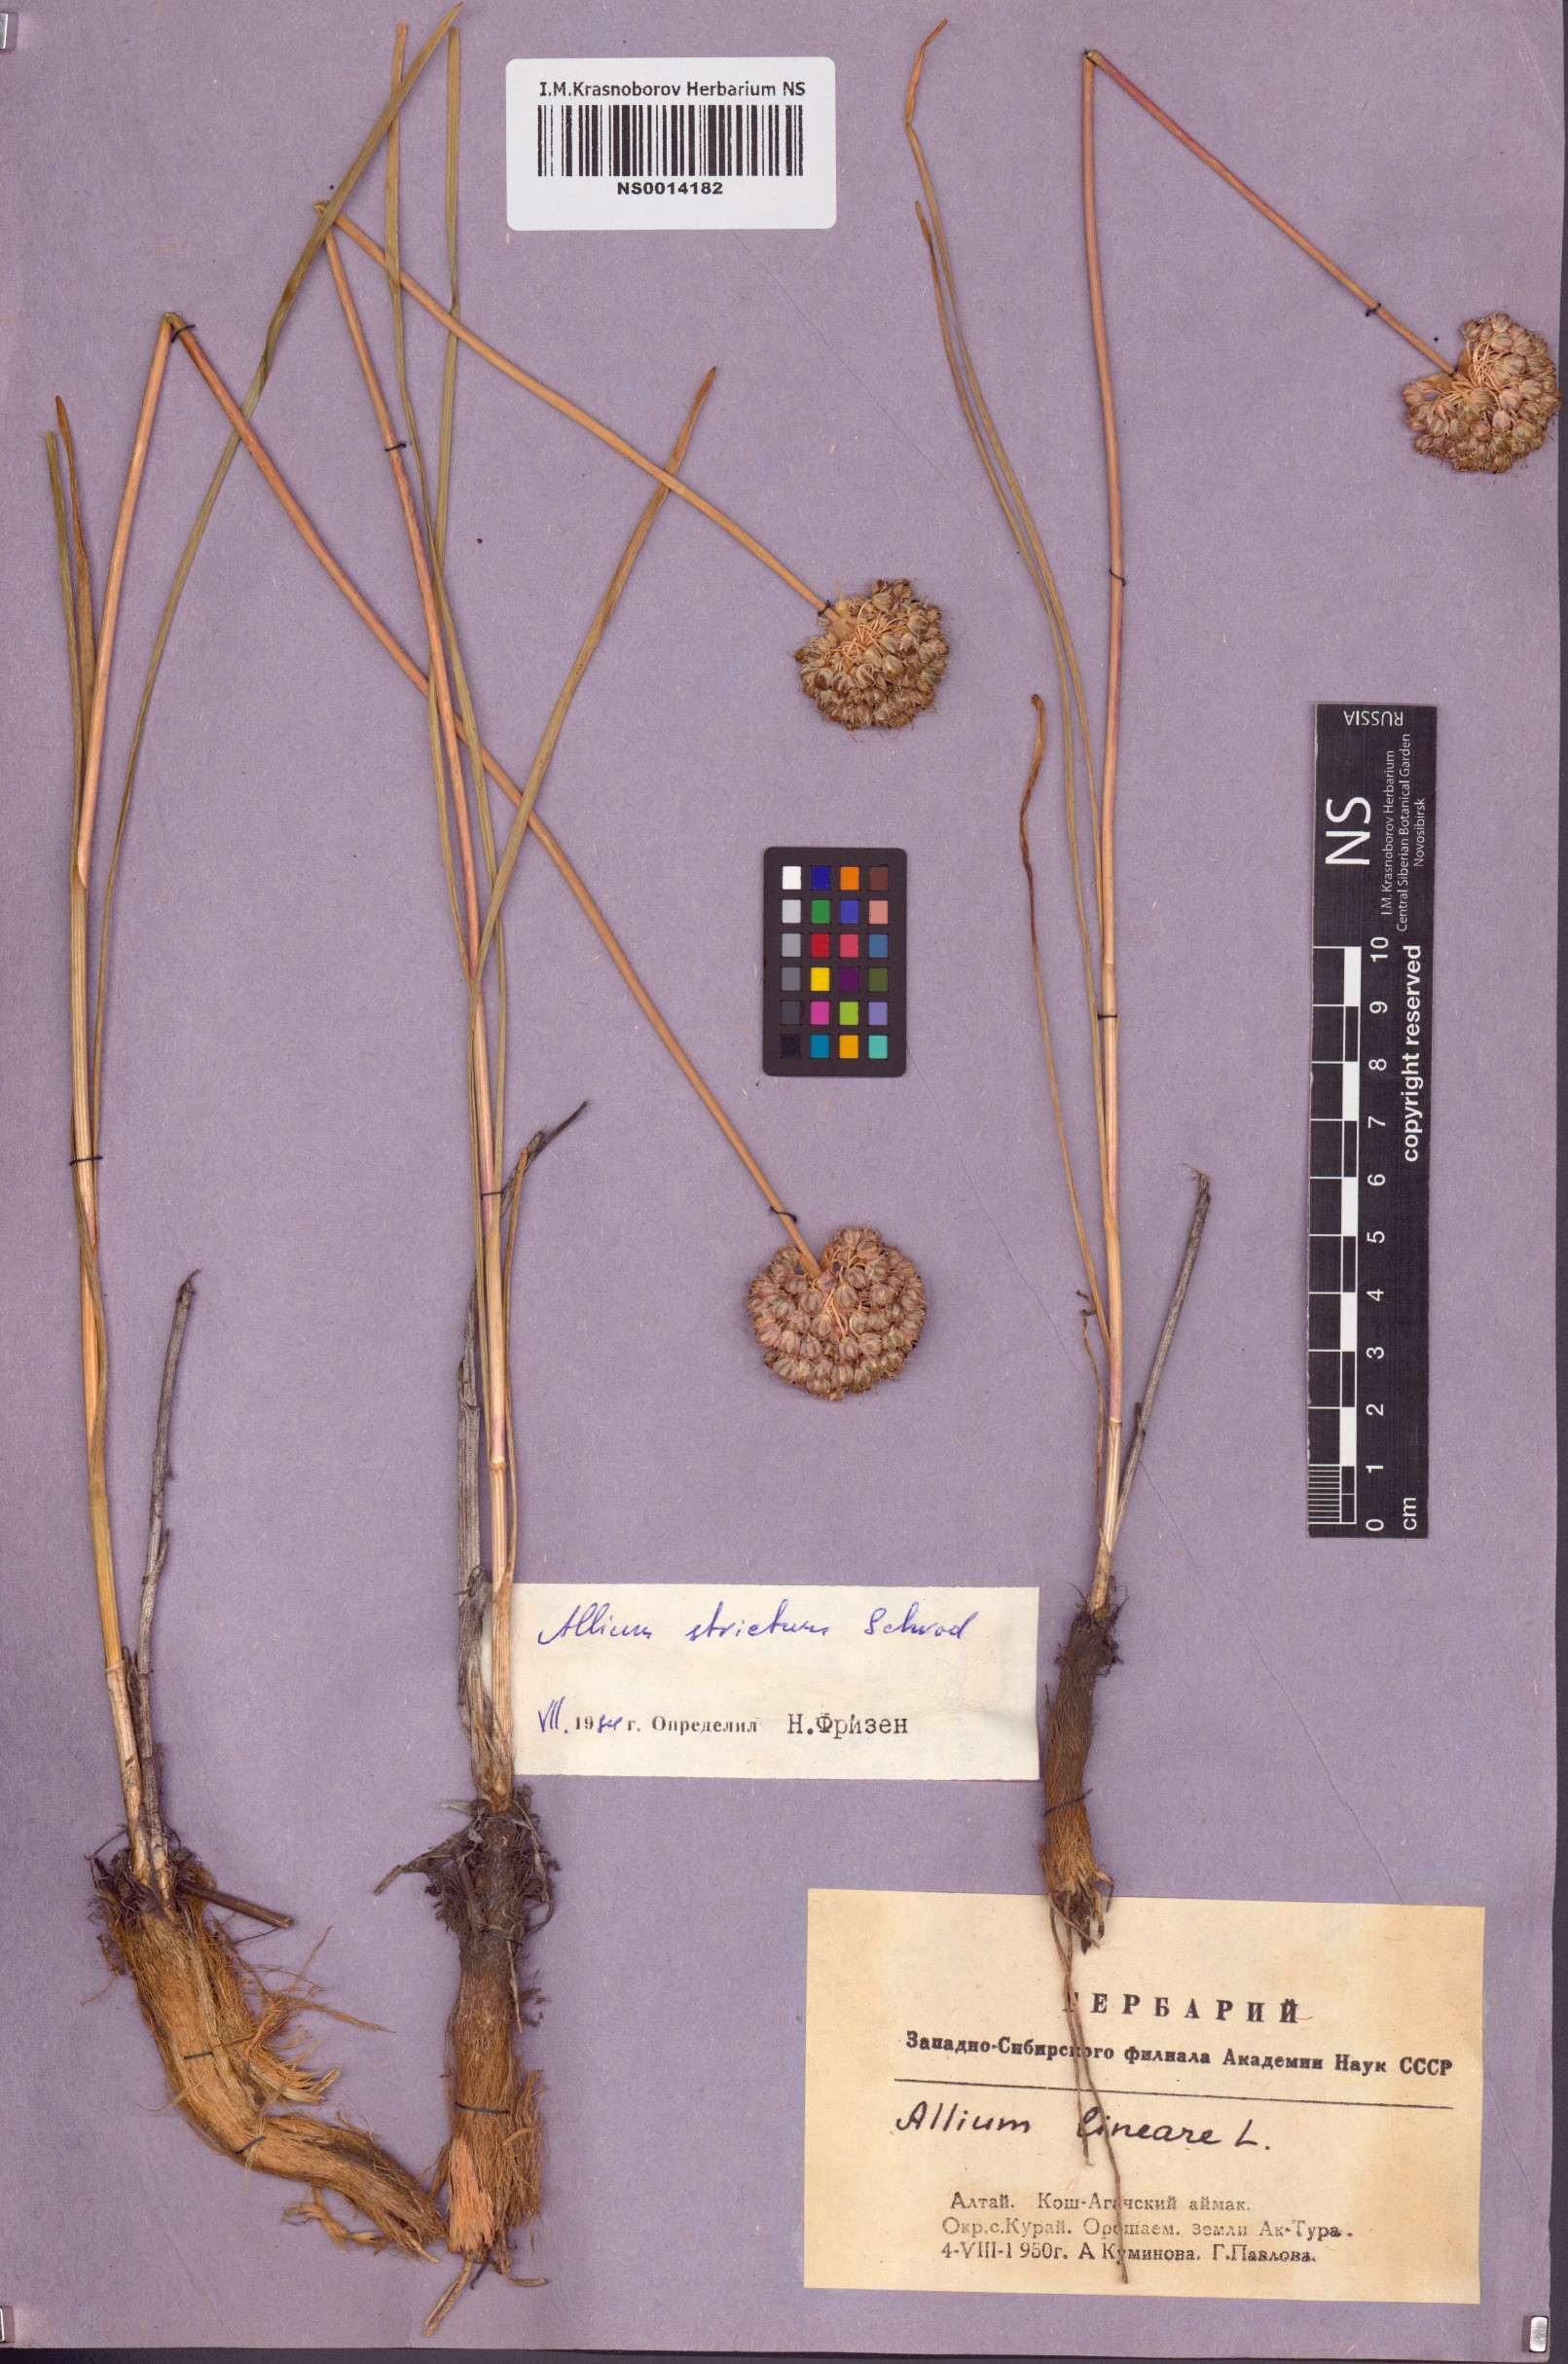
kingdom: Plantae
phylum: Tracheophyta
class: Liliopsida
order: Asparagales
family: Amaryllidaceae
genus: Allium
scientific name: Allium strictum
